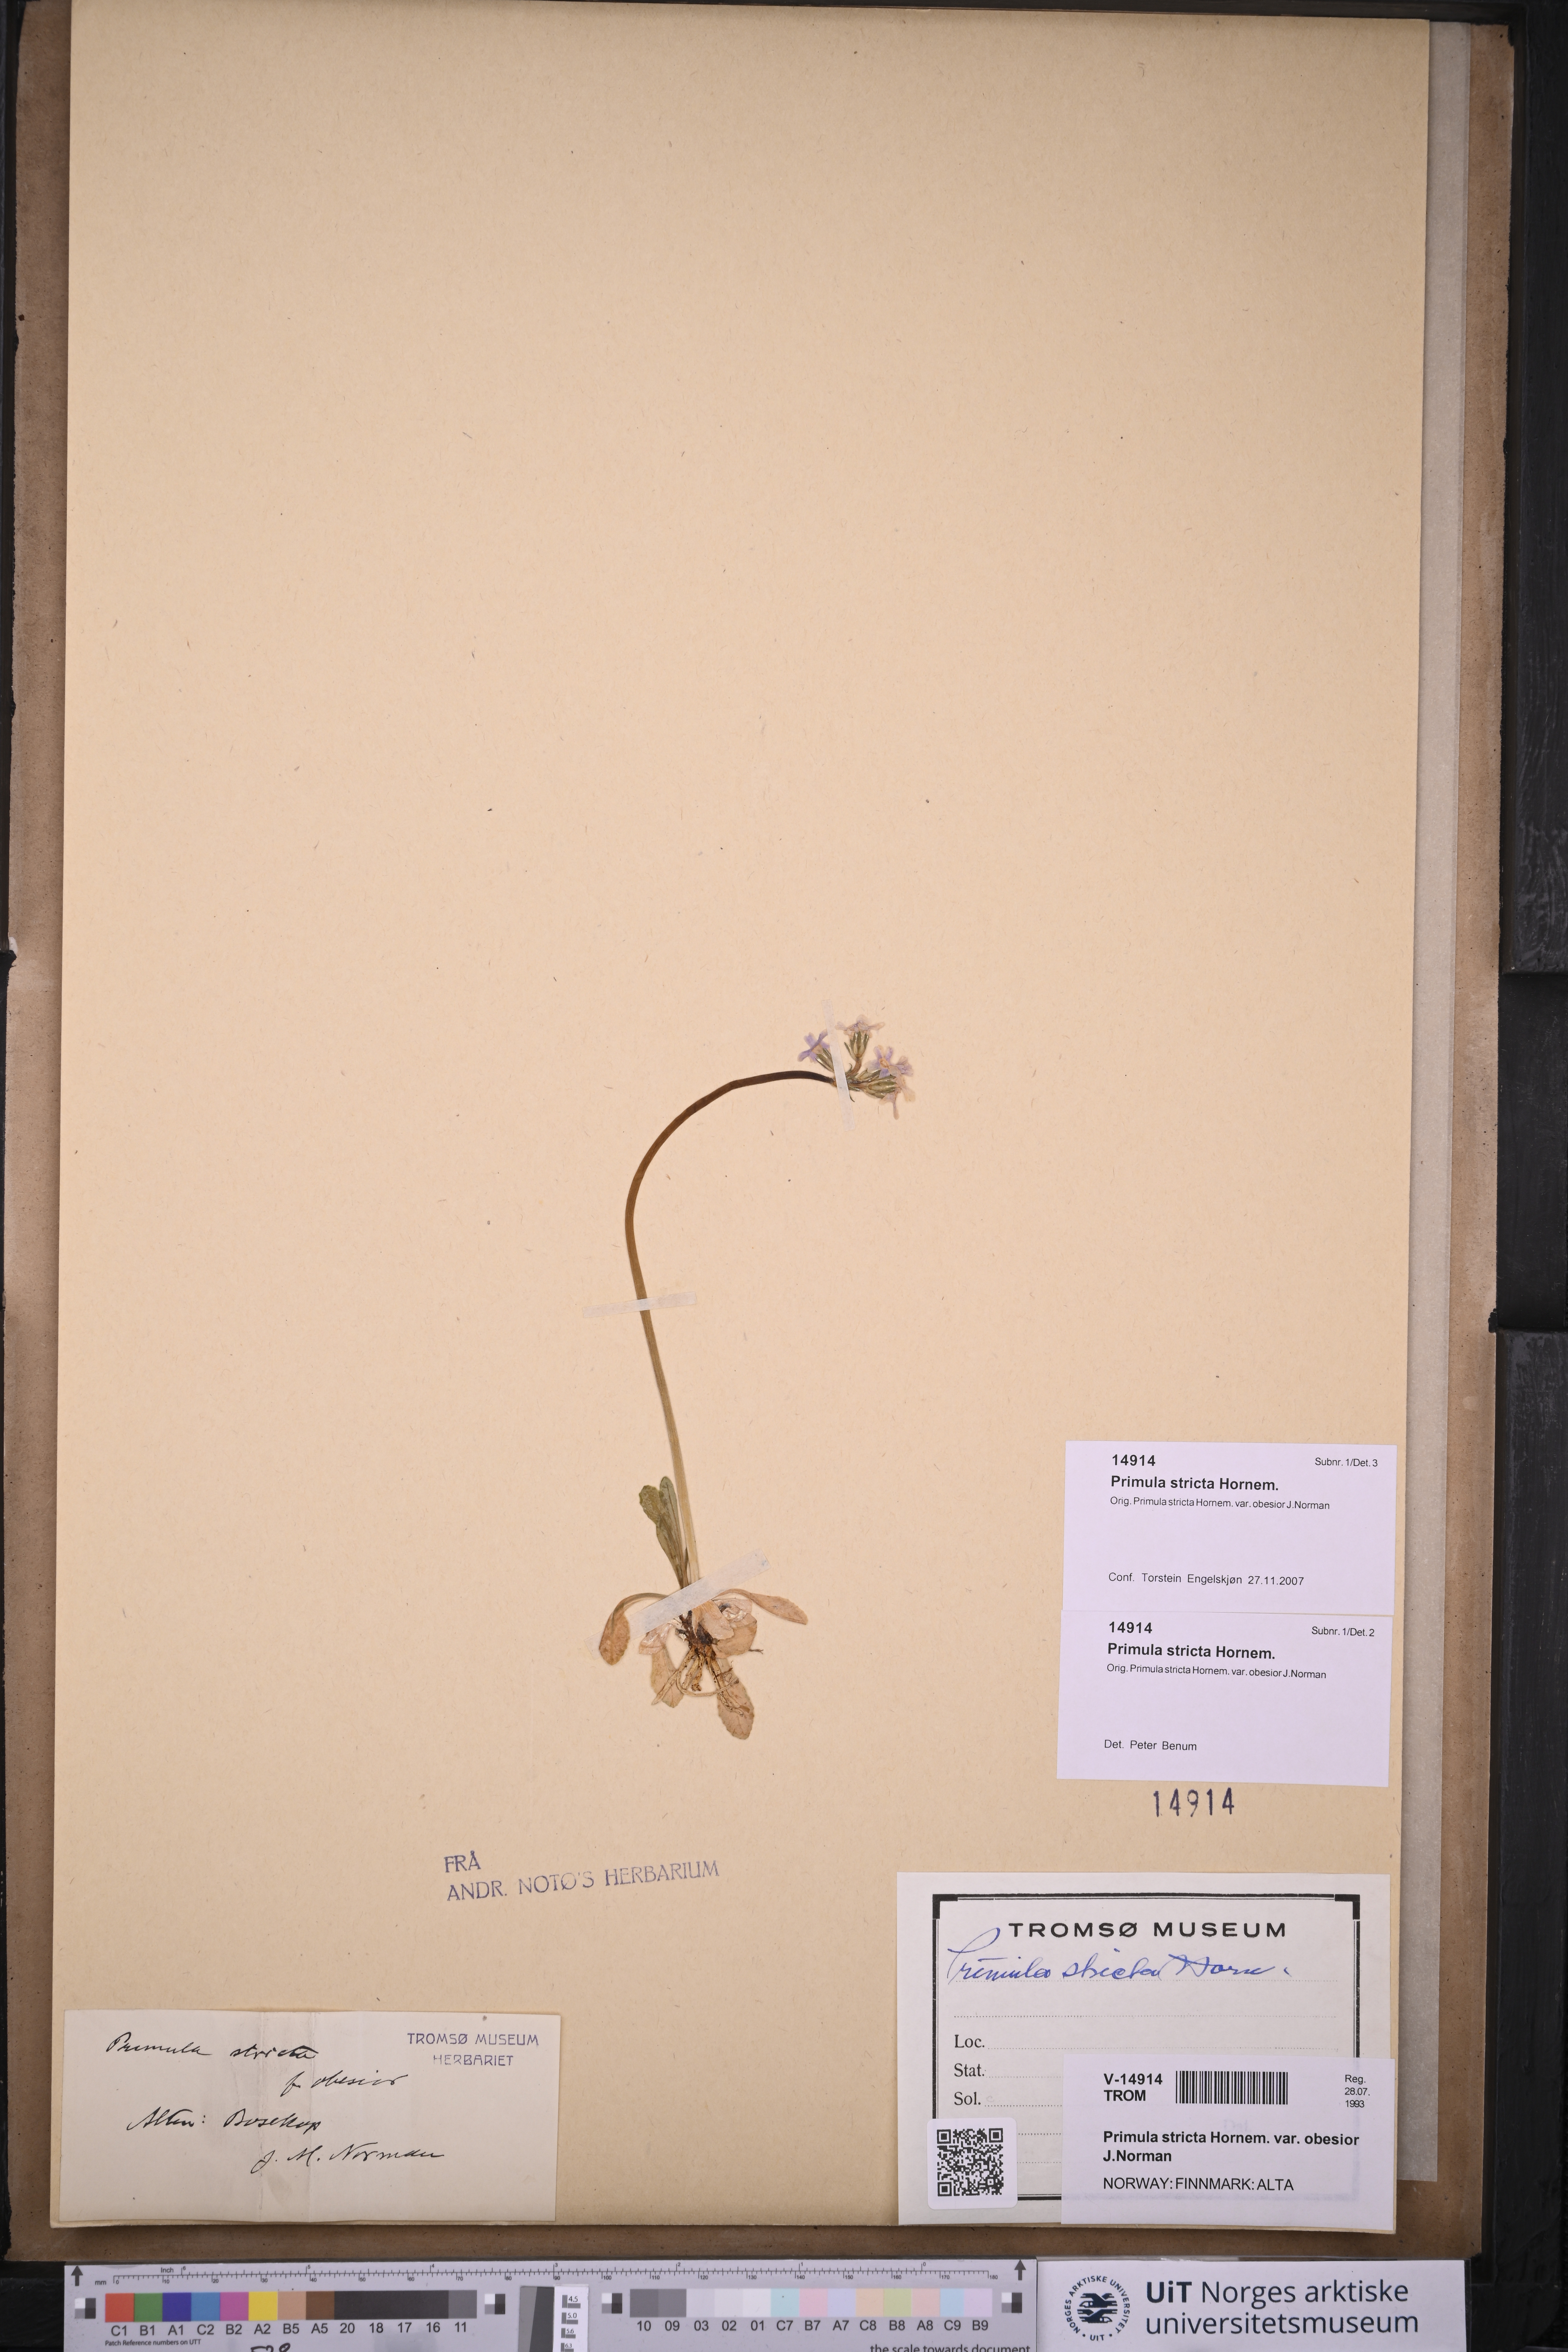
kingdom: Plantae
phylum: Tracheophyta
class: Magnoliopsida
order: Ericales
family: Primulaceae
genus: Primula
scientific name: Primula stricta
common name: Coastal primrose
